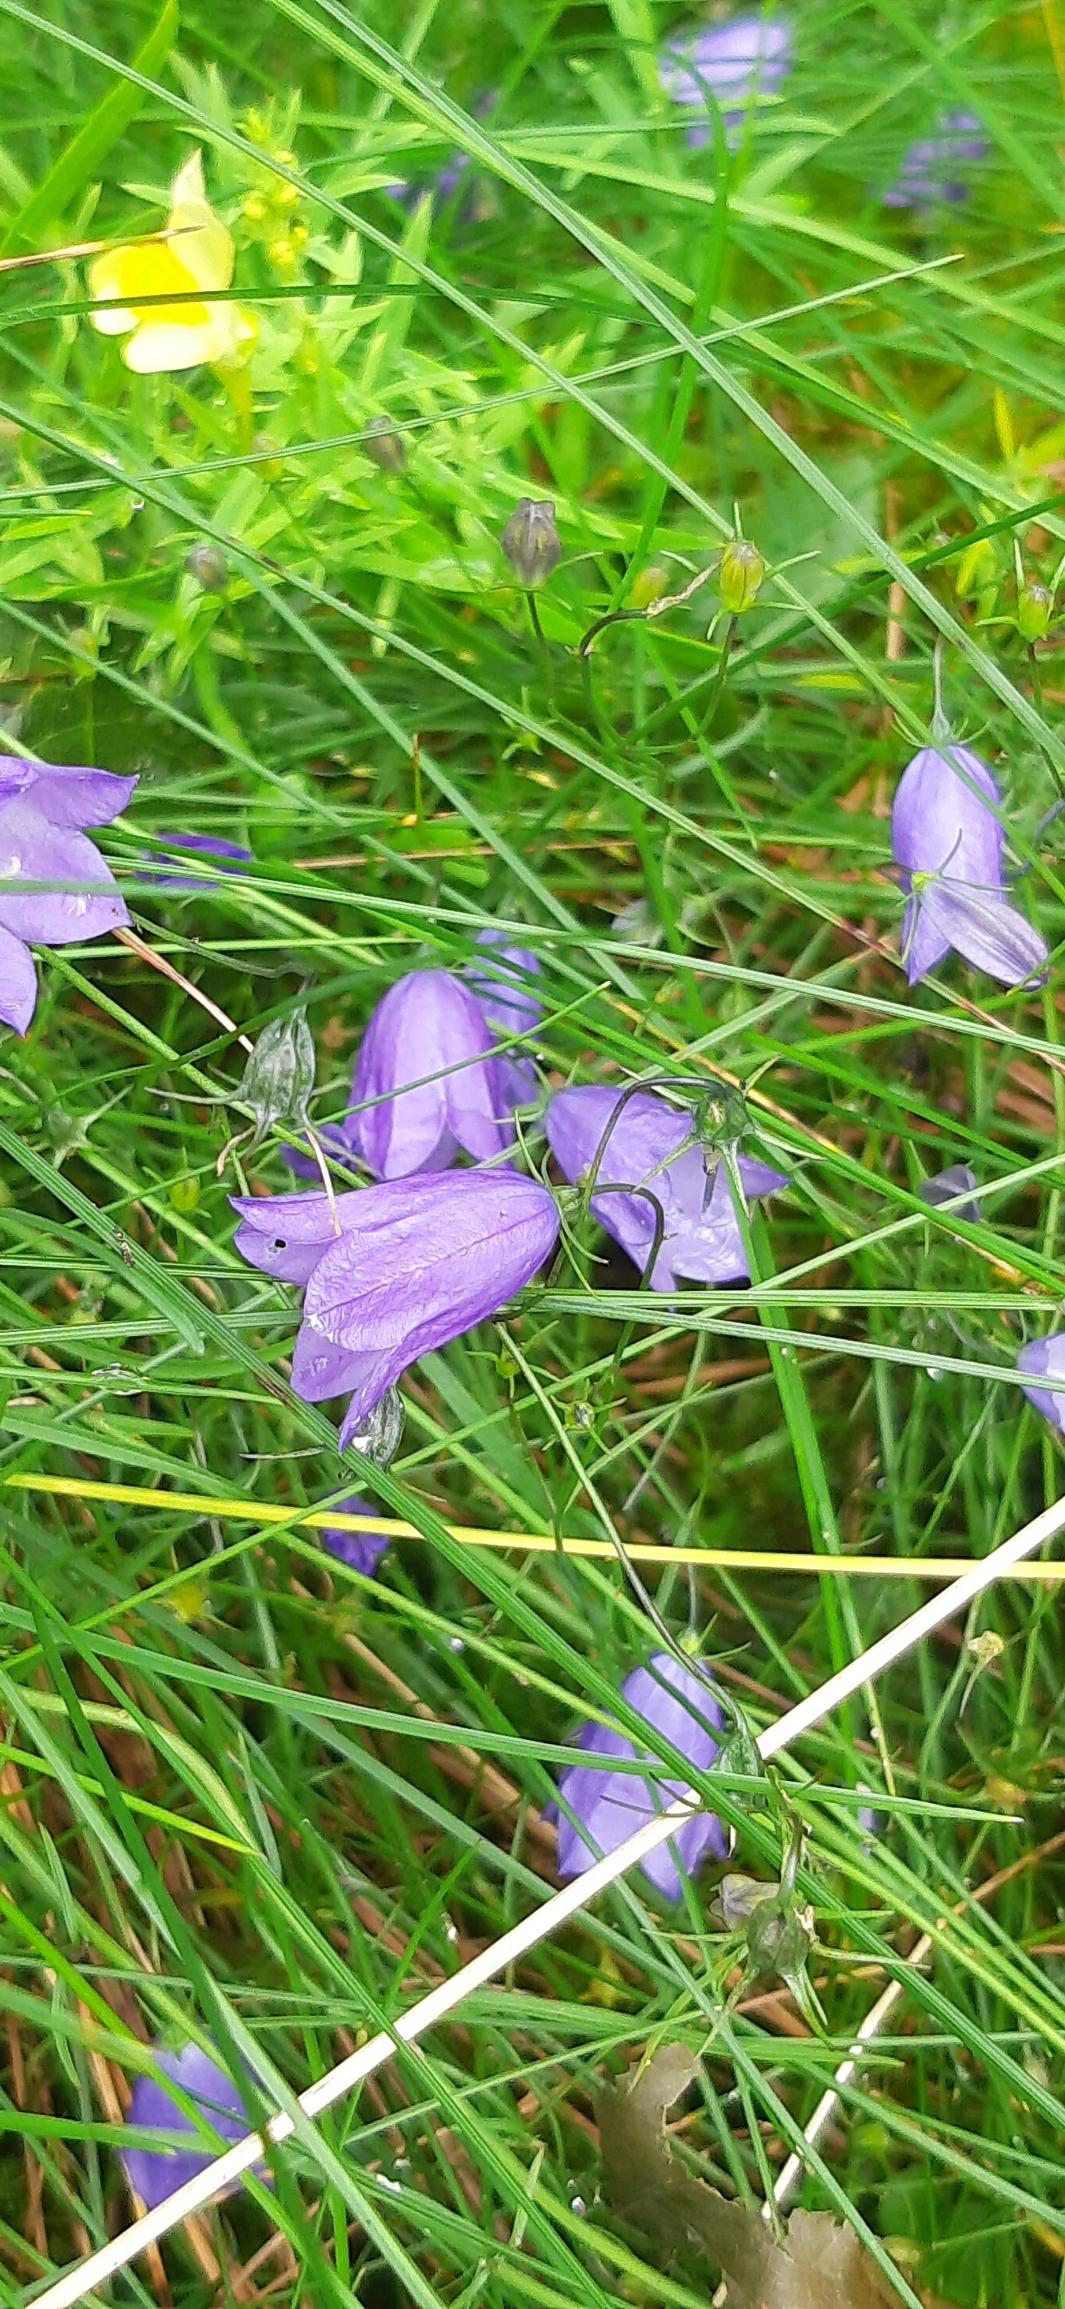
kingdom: Plantae
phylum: Tracheophyta
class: Magnoliopsida
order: Asterales
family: Campanulaceae
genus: Campanula
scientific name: Campanula rotundifolia
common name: Liden klokke
